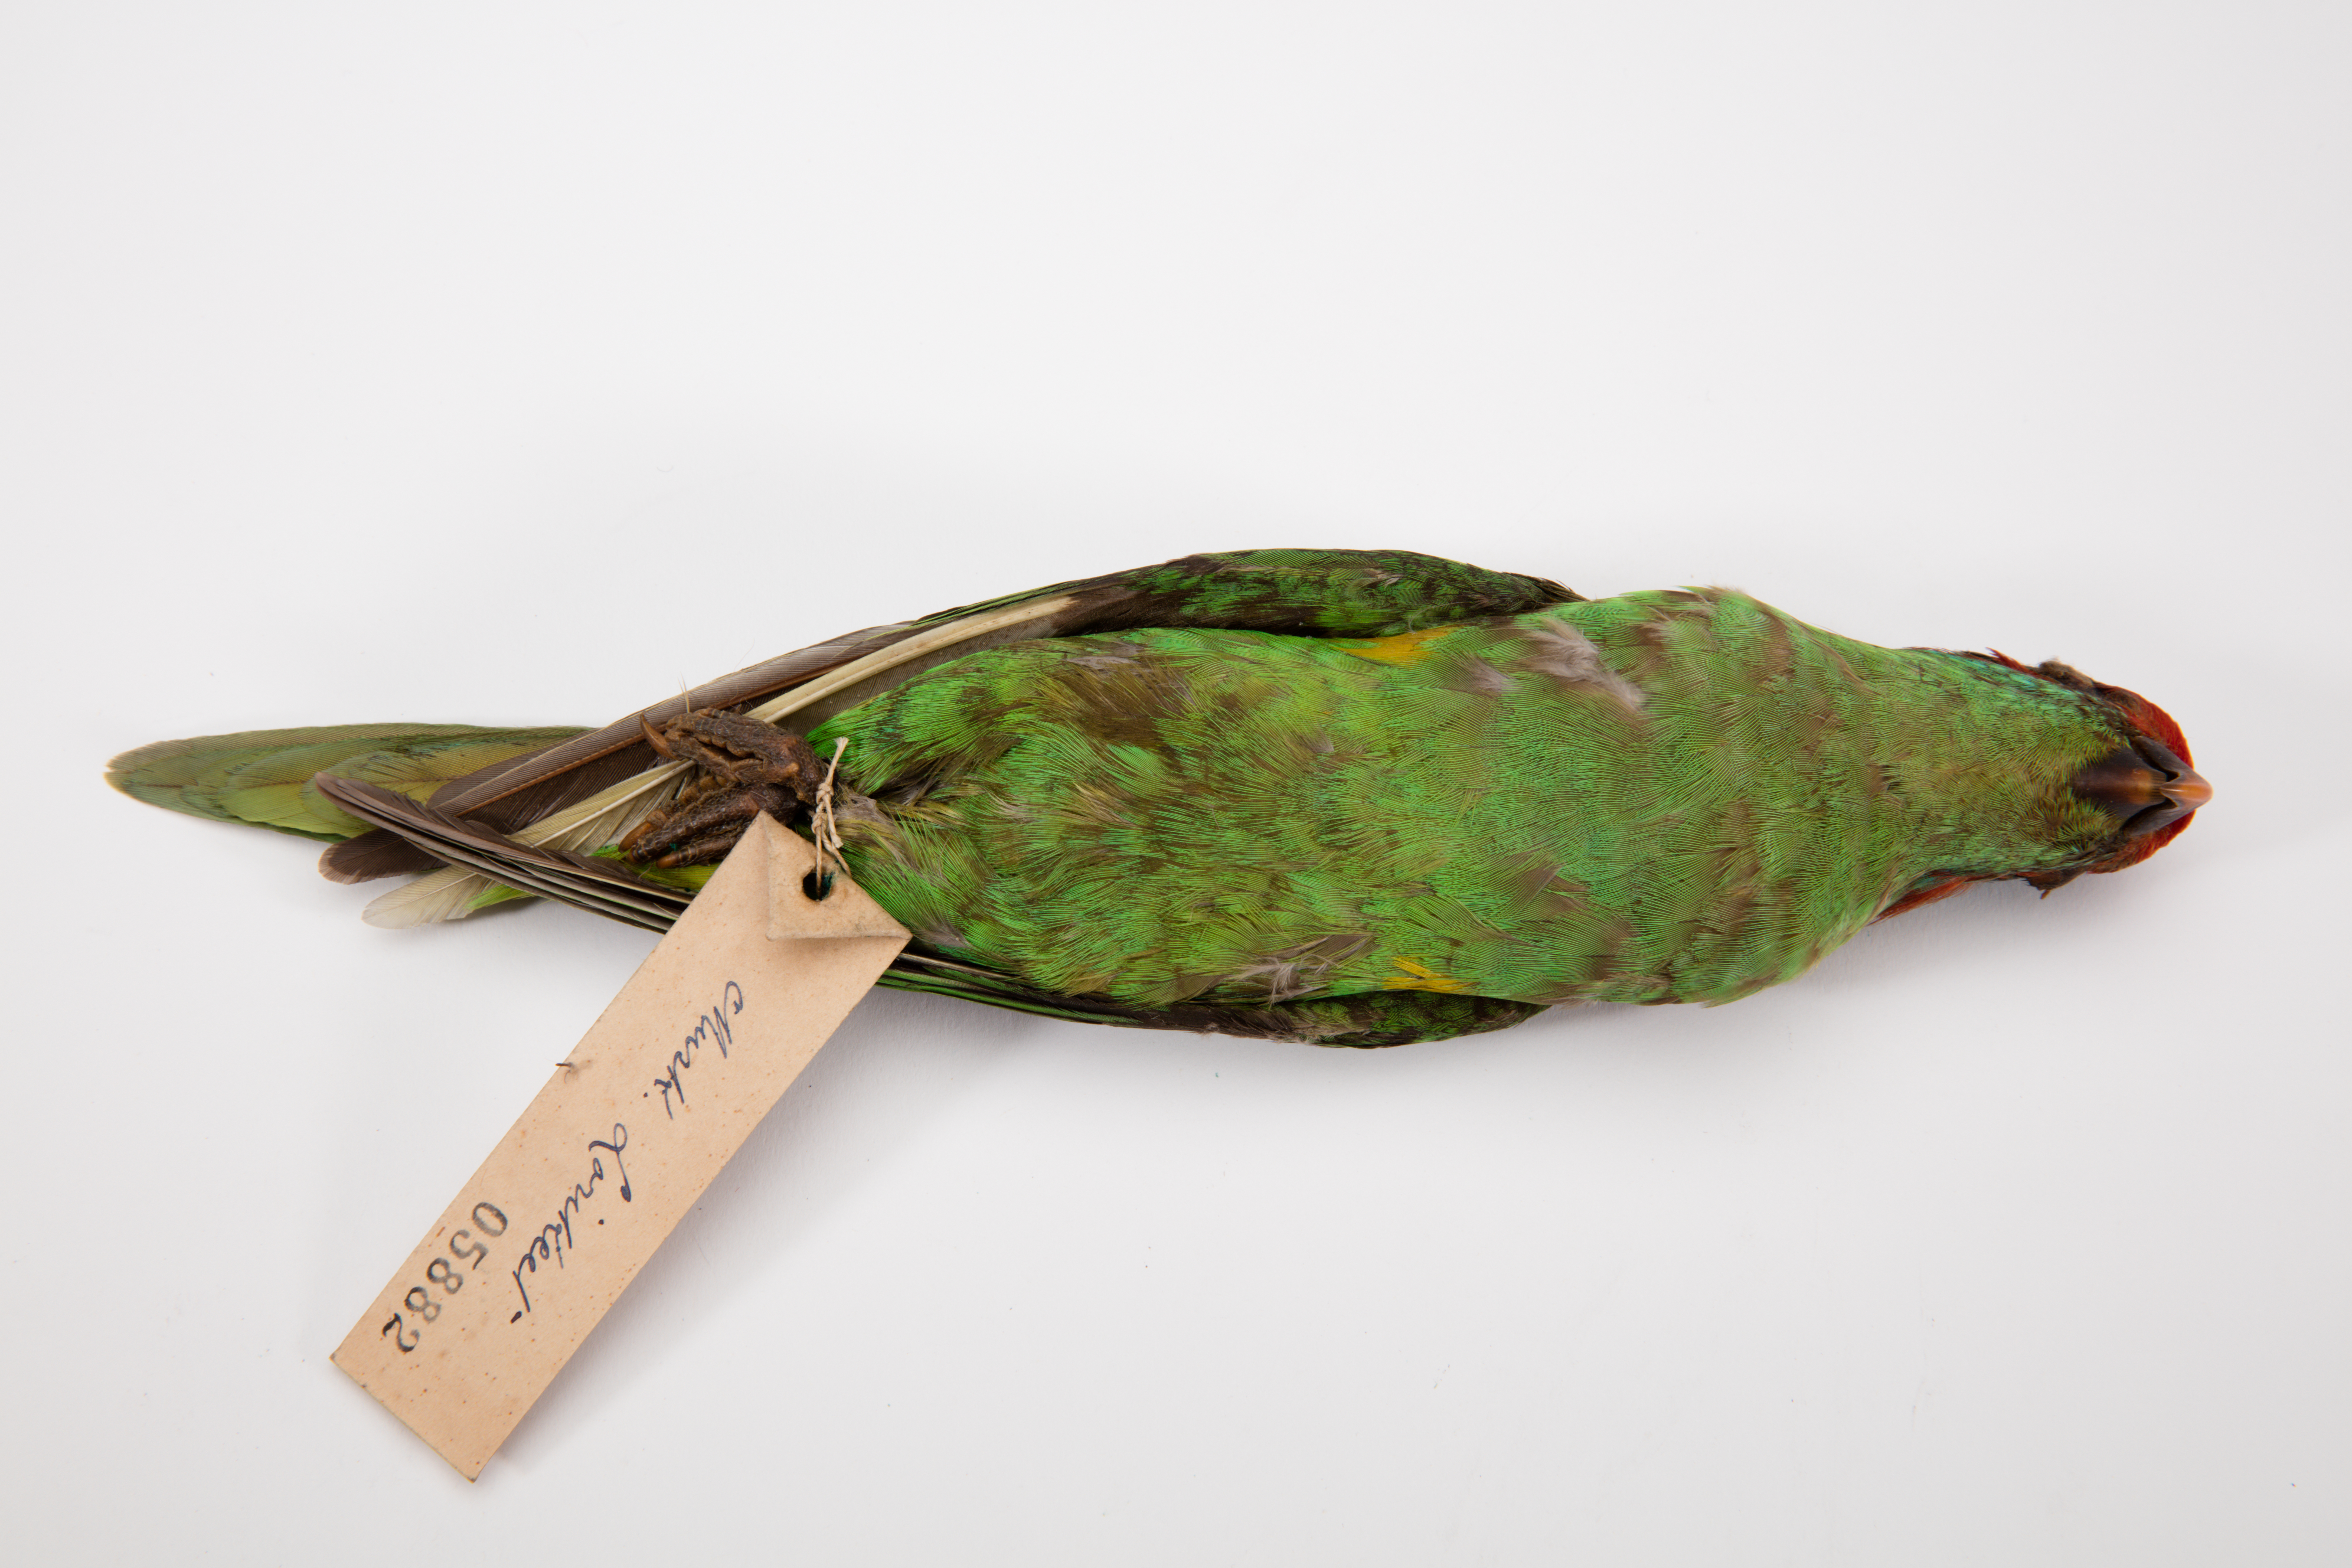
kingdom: Animalia
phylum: Chordata
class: Aves
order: Psittaciformes
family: Psittacidae
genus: Glossopsitta
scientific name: Glossopsitta concinna
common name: Musk lorikeet
